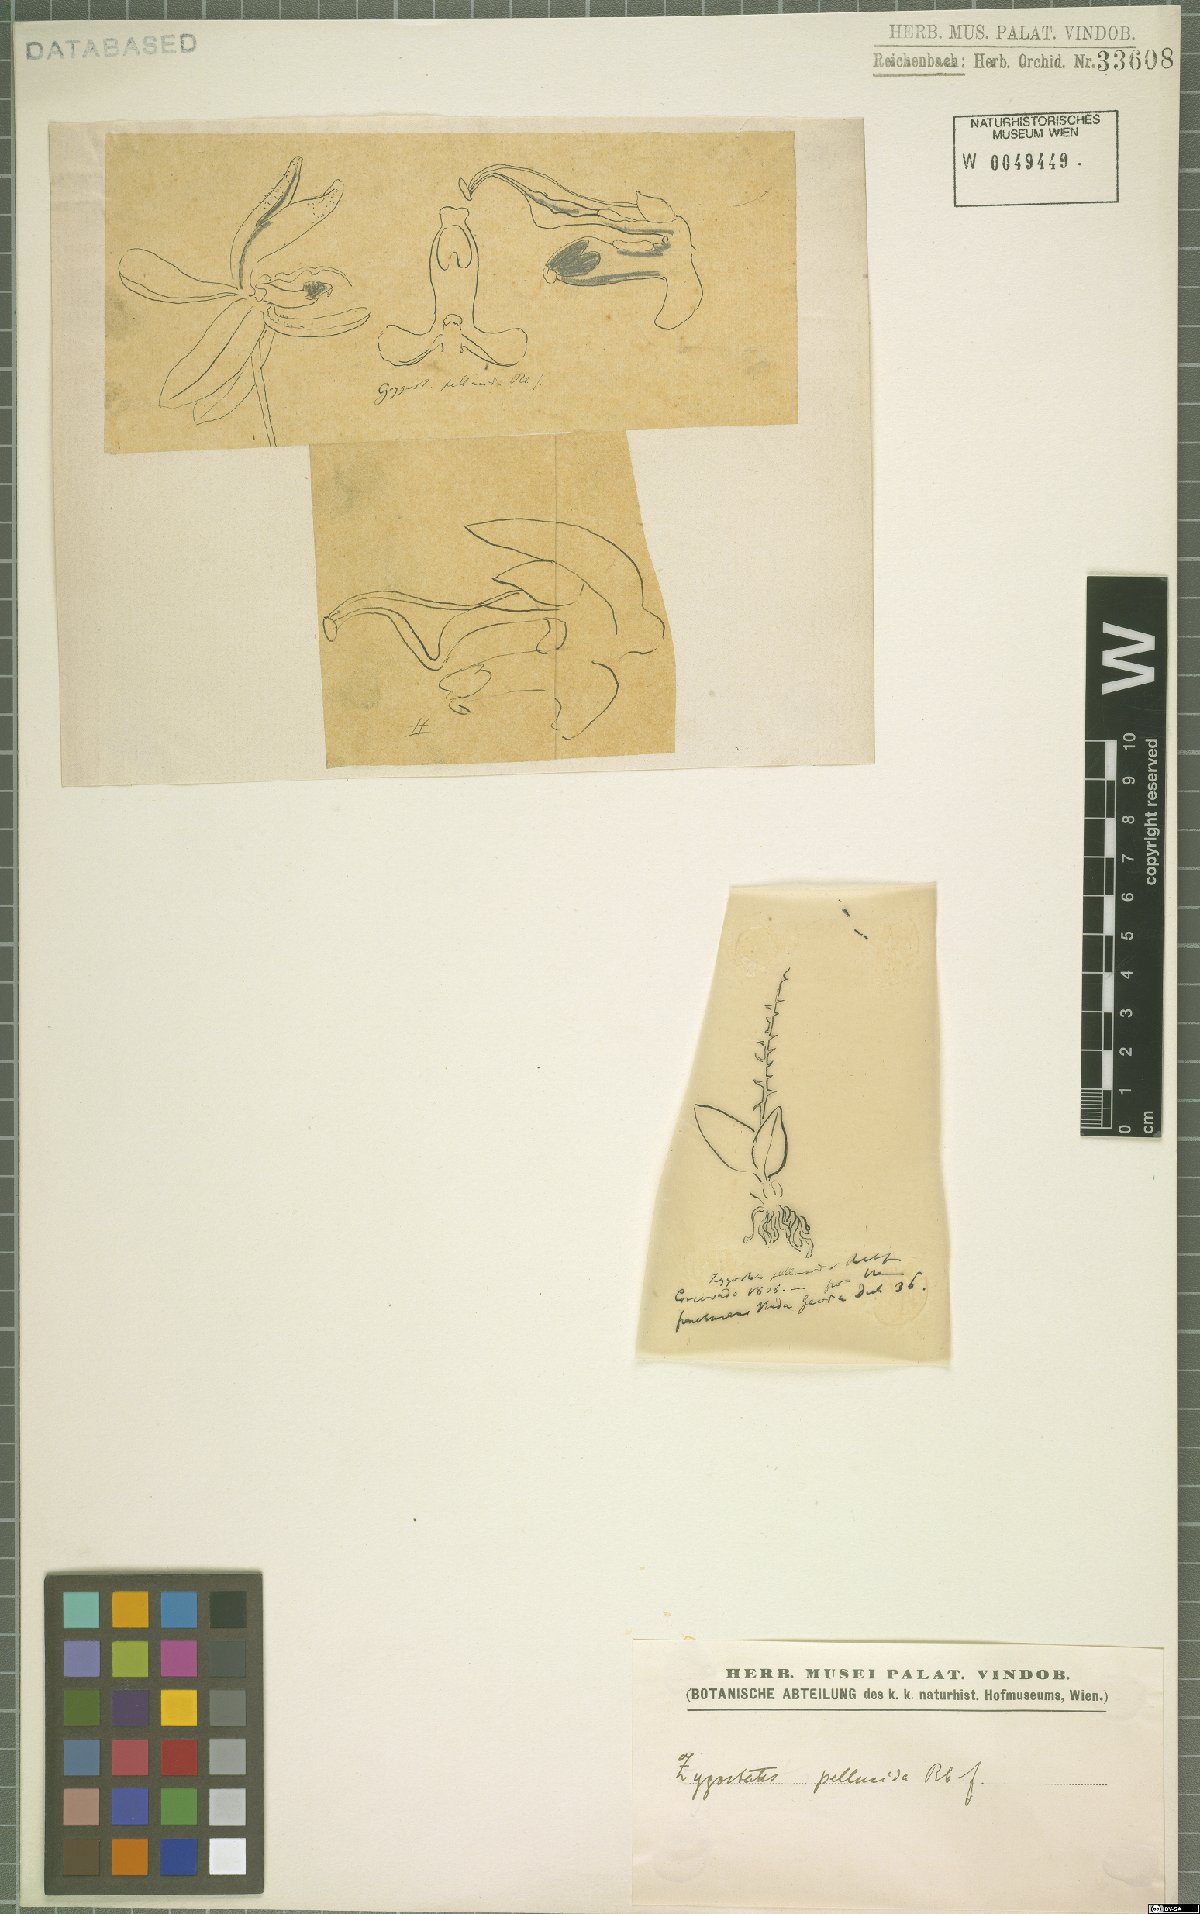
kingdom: Plantae
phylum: Tracheophyta
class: Liliopsida
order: Asparagales
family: Orchidaceae
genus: Zygostates
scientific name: Zygostates pellucida
